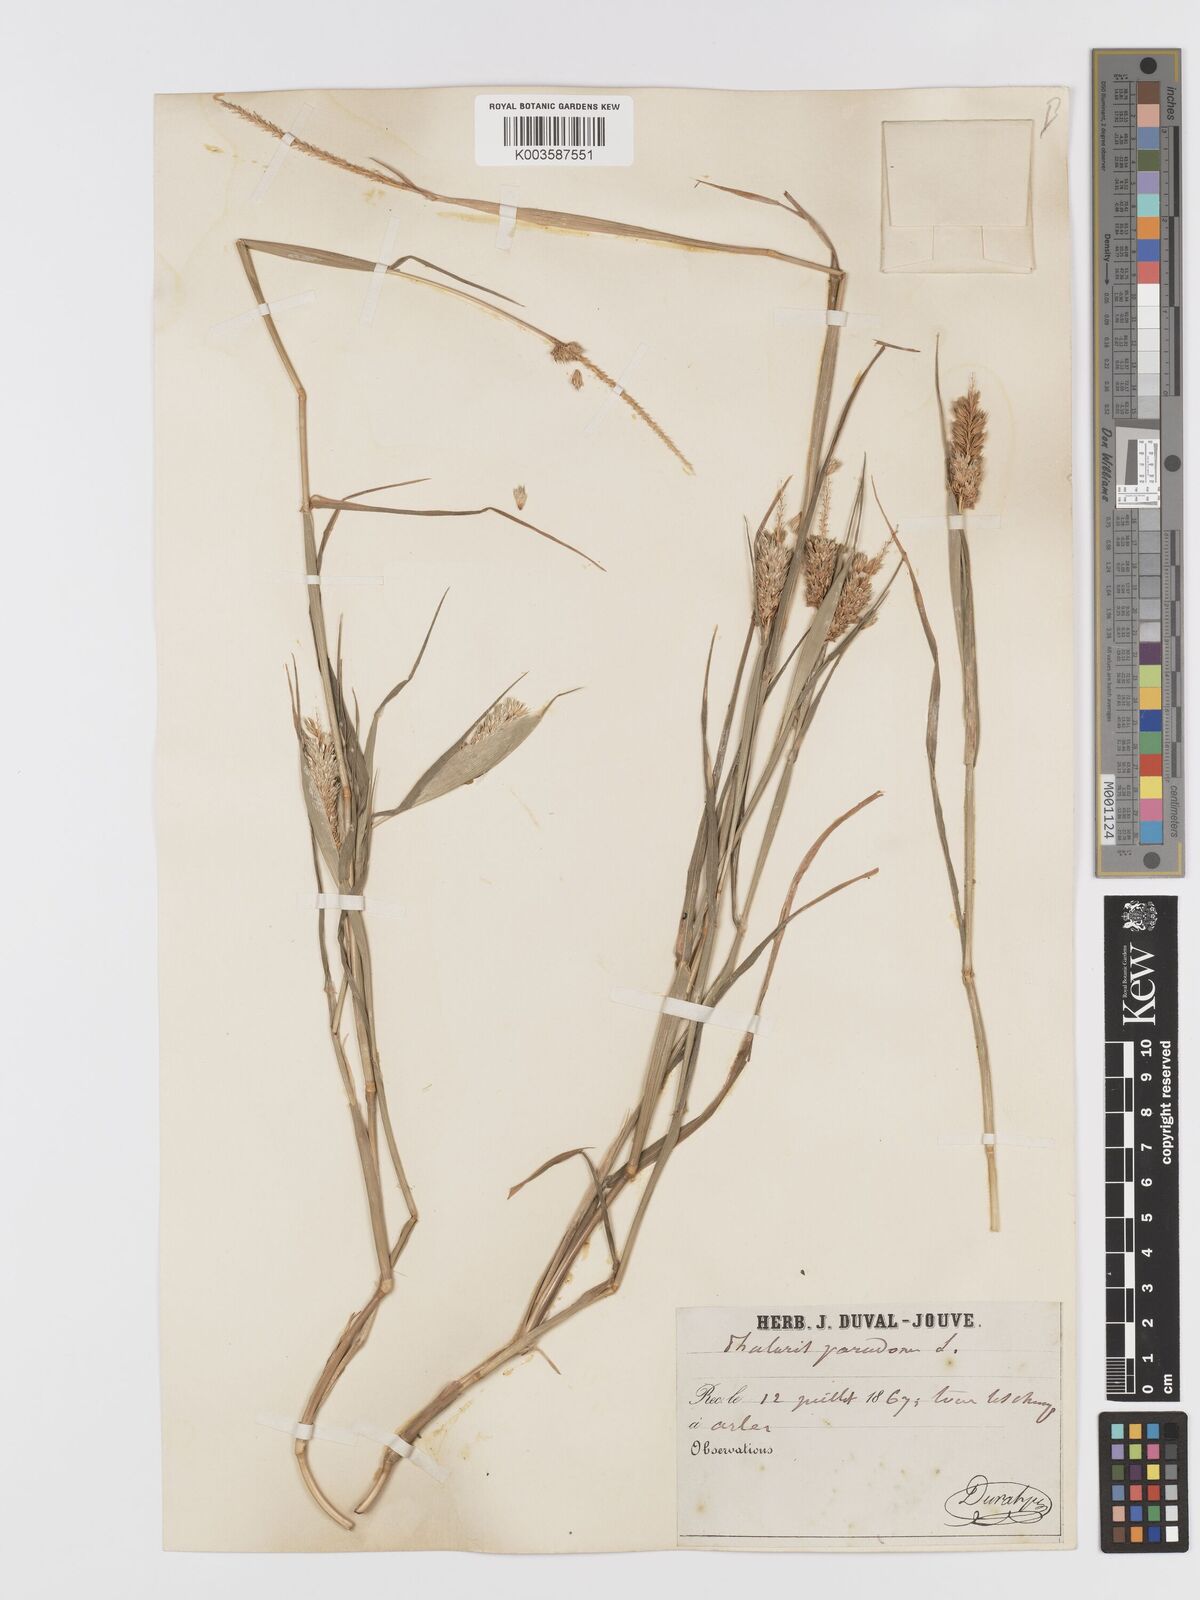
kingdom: Plantae
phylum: Tracheophyta
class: Liliopsida
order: Poales
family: Poaceae
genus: Phalaris
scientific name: Phalaris paradoxa
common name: Awned canary-grass
